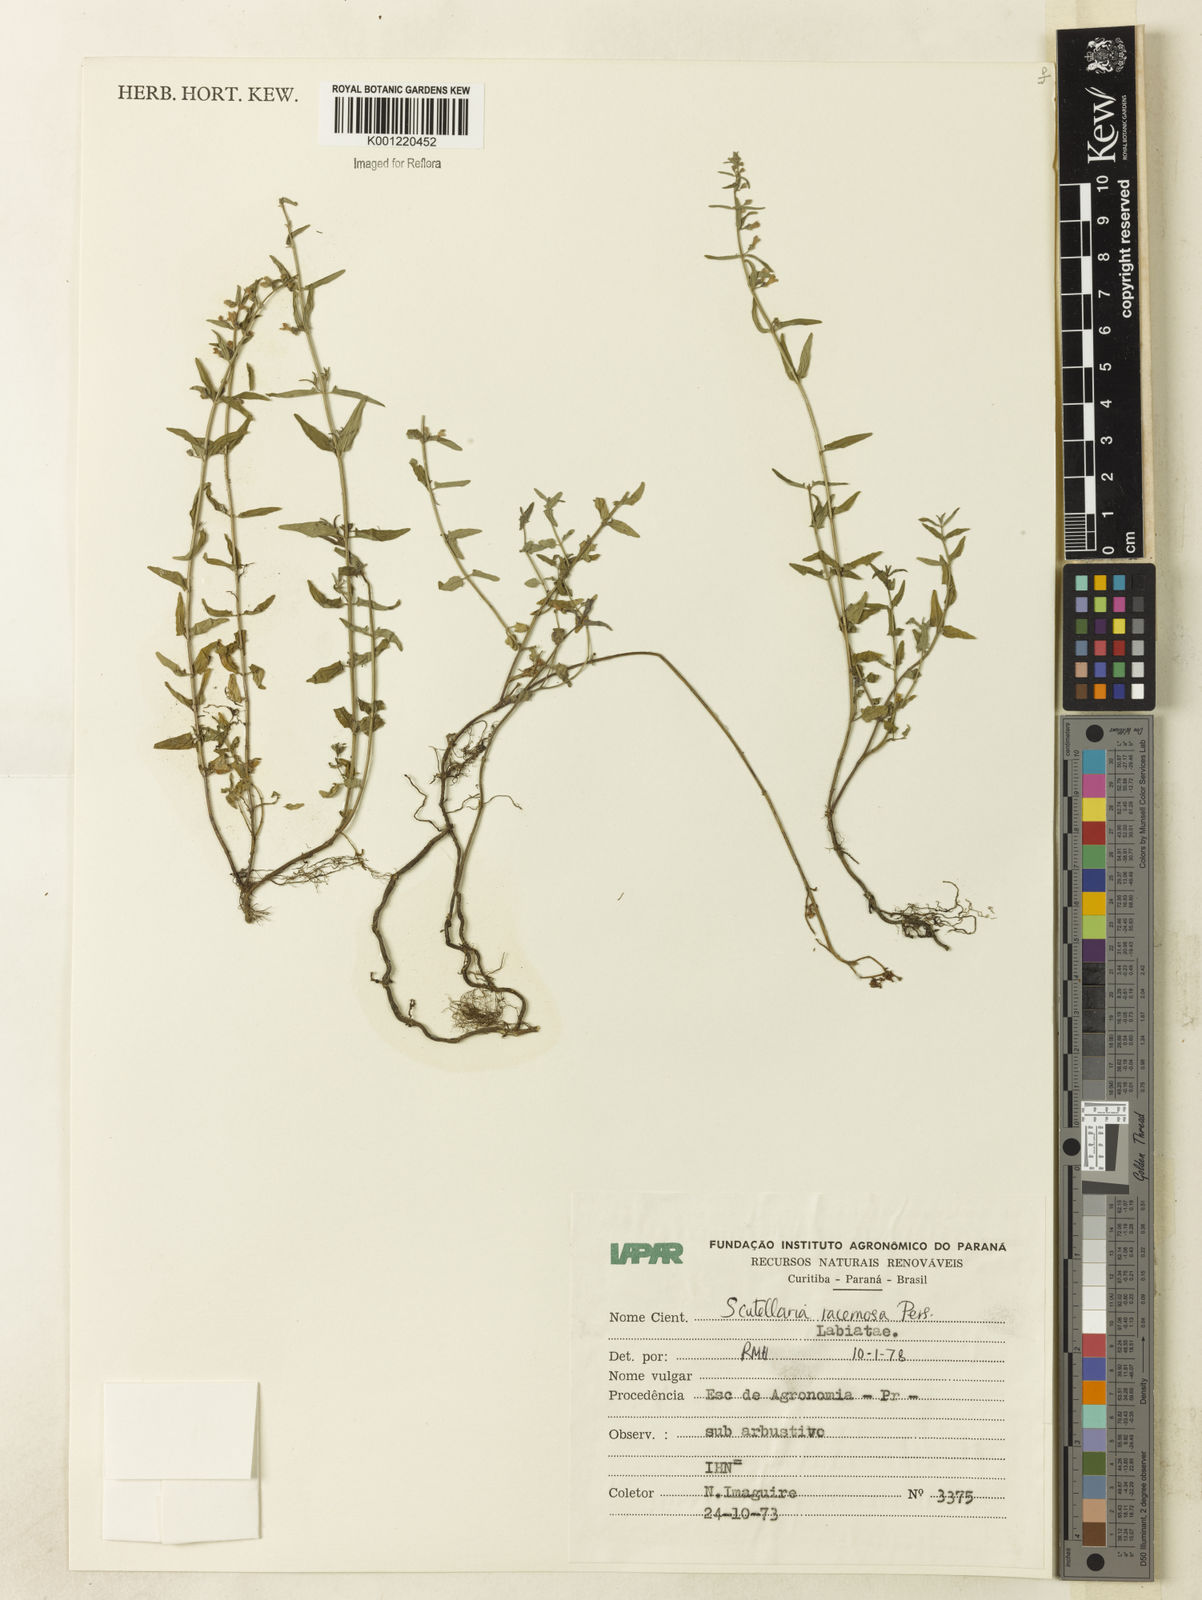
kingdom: Plantae
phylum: Tracheophyta
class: Magnoliopsida
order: Lamiales
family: Lamiaceae
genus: Scutellaria
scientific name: Scutellaria racemosa
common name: South american skullcap
